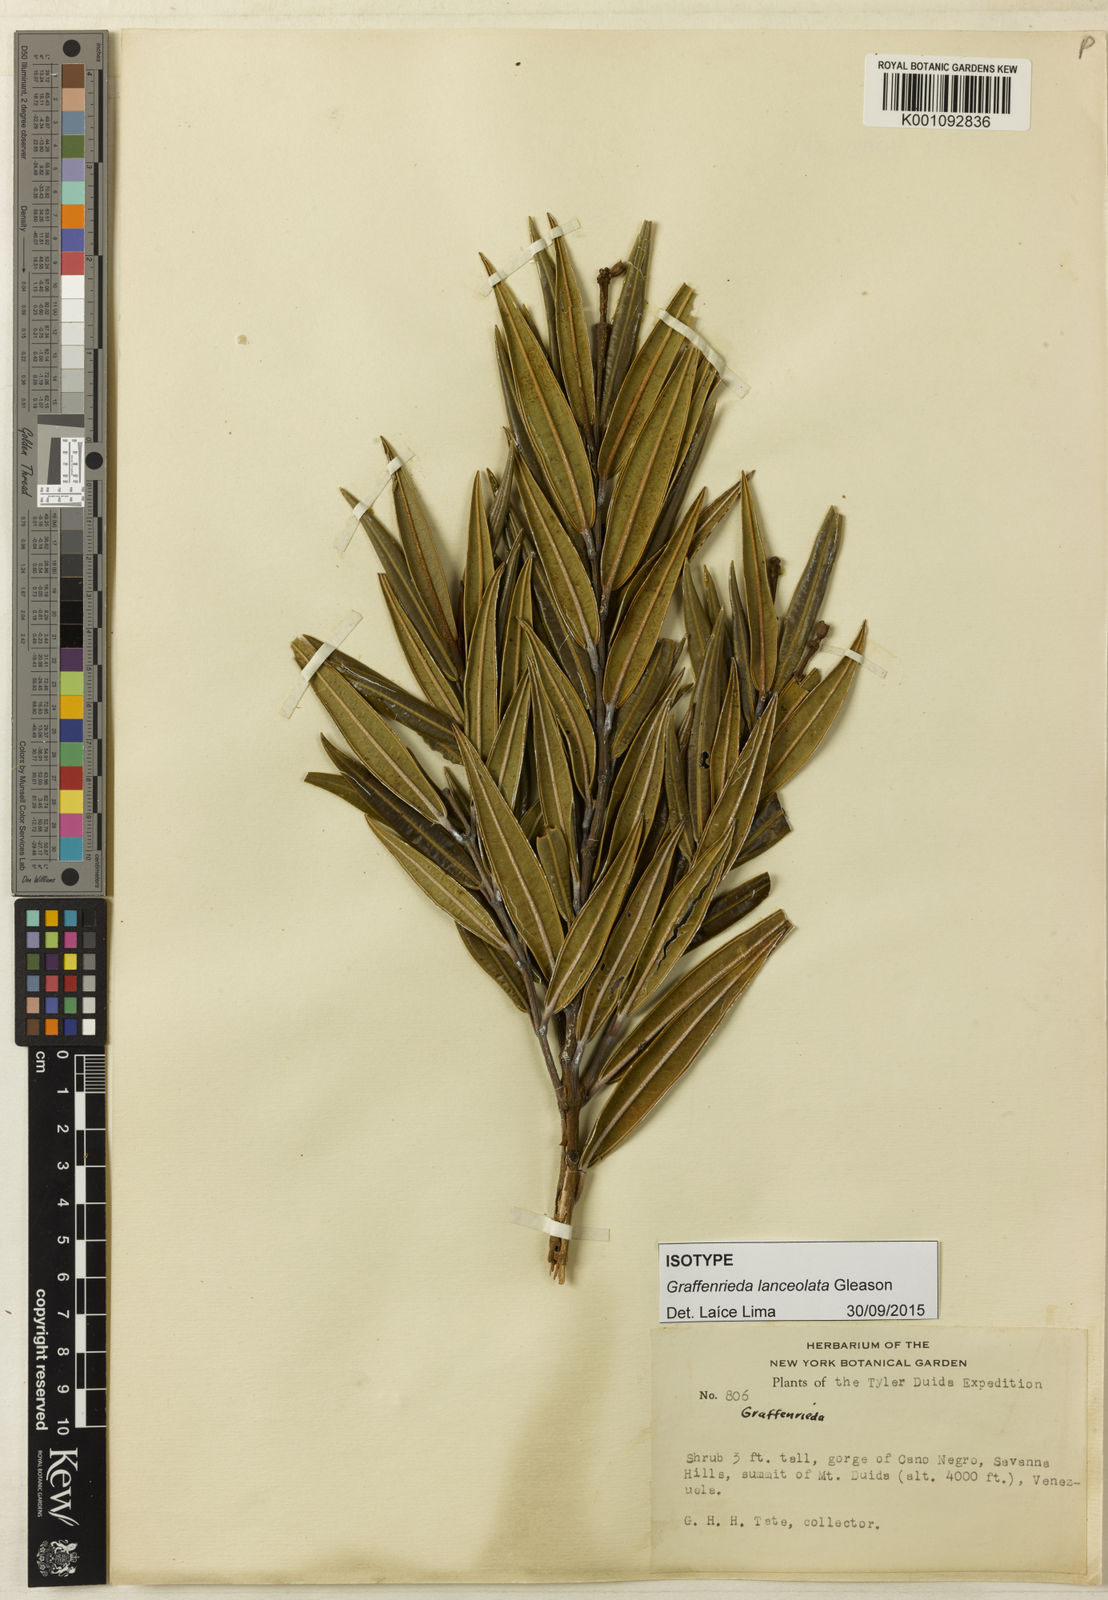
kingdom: Plantae
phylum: Tracheophyta
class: Magnoliopsida
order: Myrtales
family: Melastomataceae
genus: Graffenrieda
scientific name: Graffenrieda lanceolata
